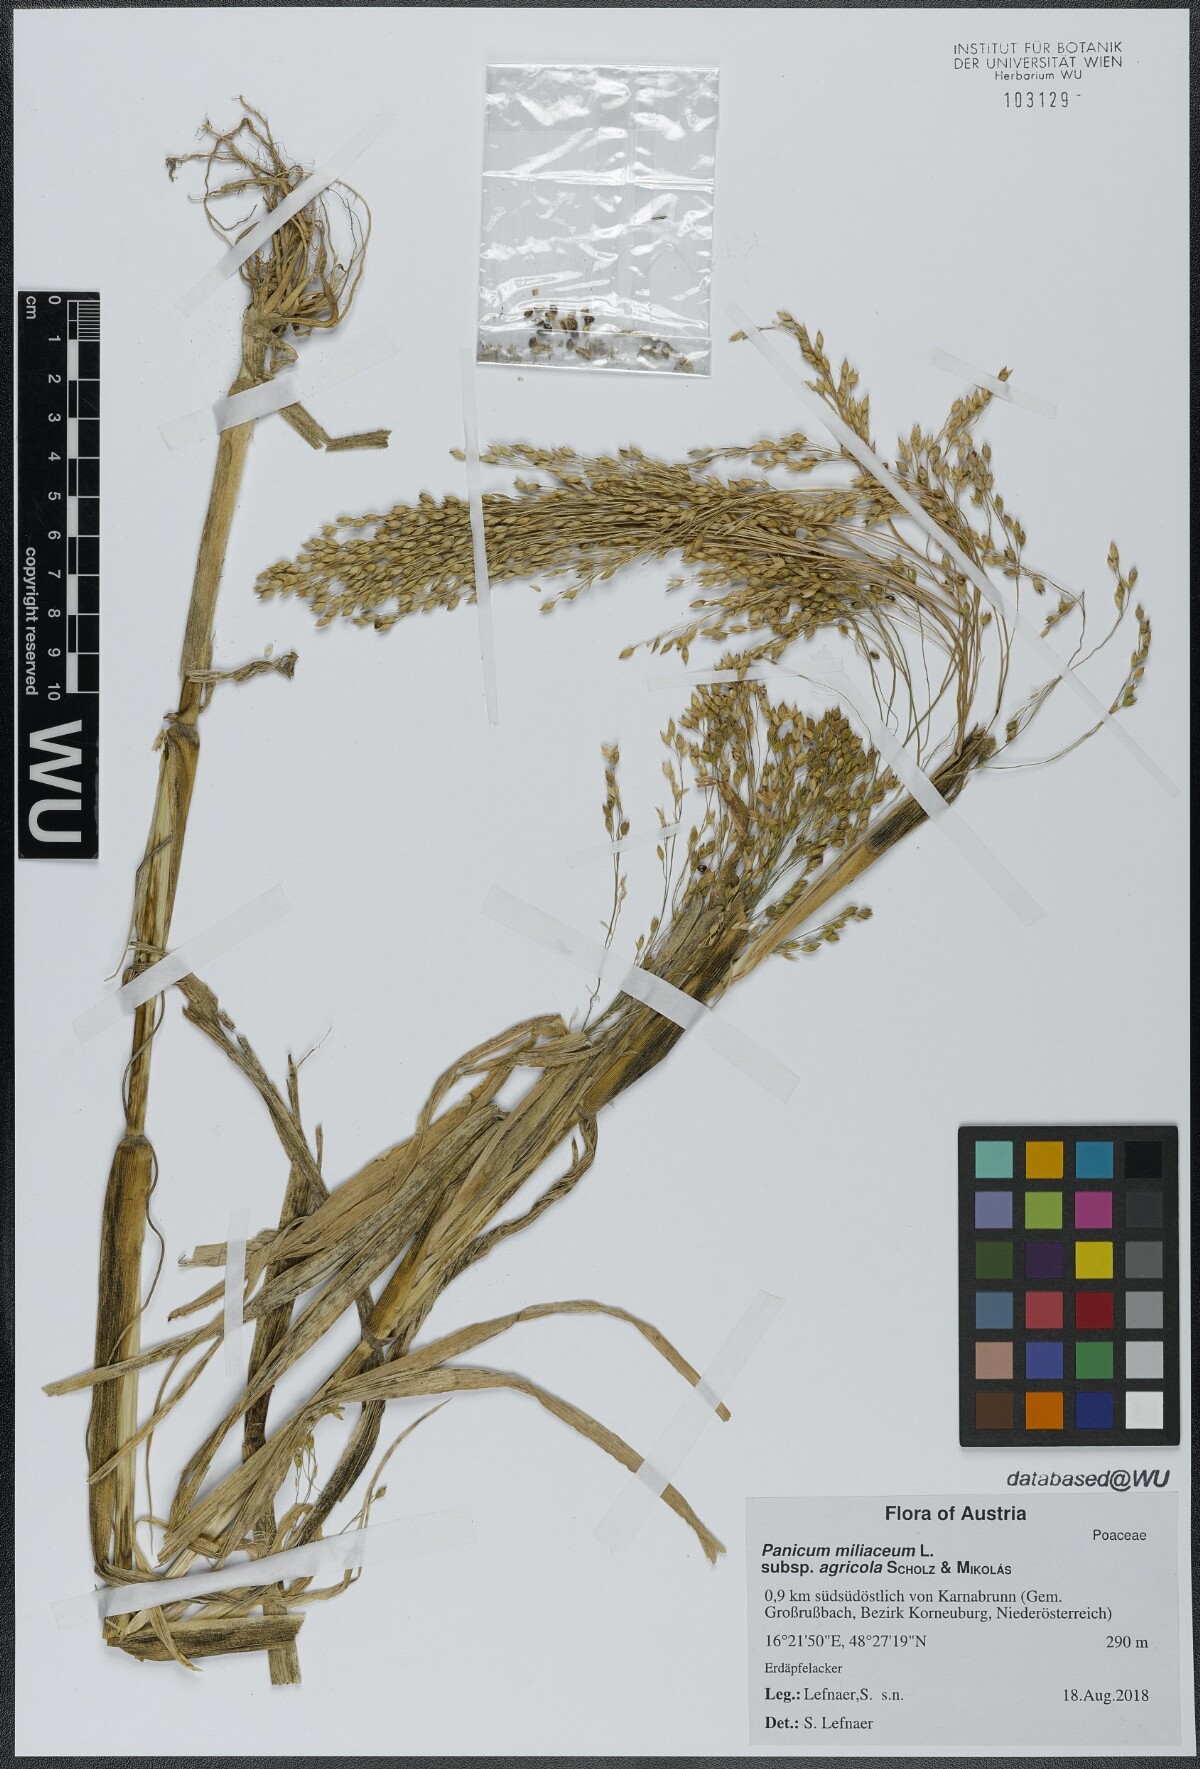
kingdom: Plantae
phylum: Tracheophyta
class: Liliopsida
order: Poales
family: Poaceae
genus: Panicum
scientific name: Panicum miliaceum
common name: Common millet
